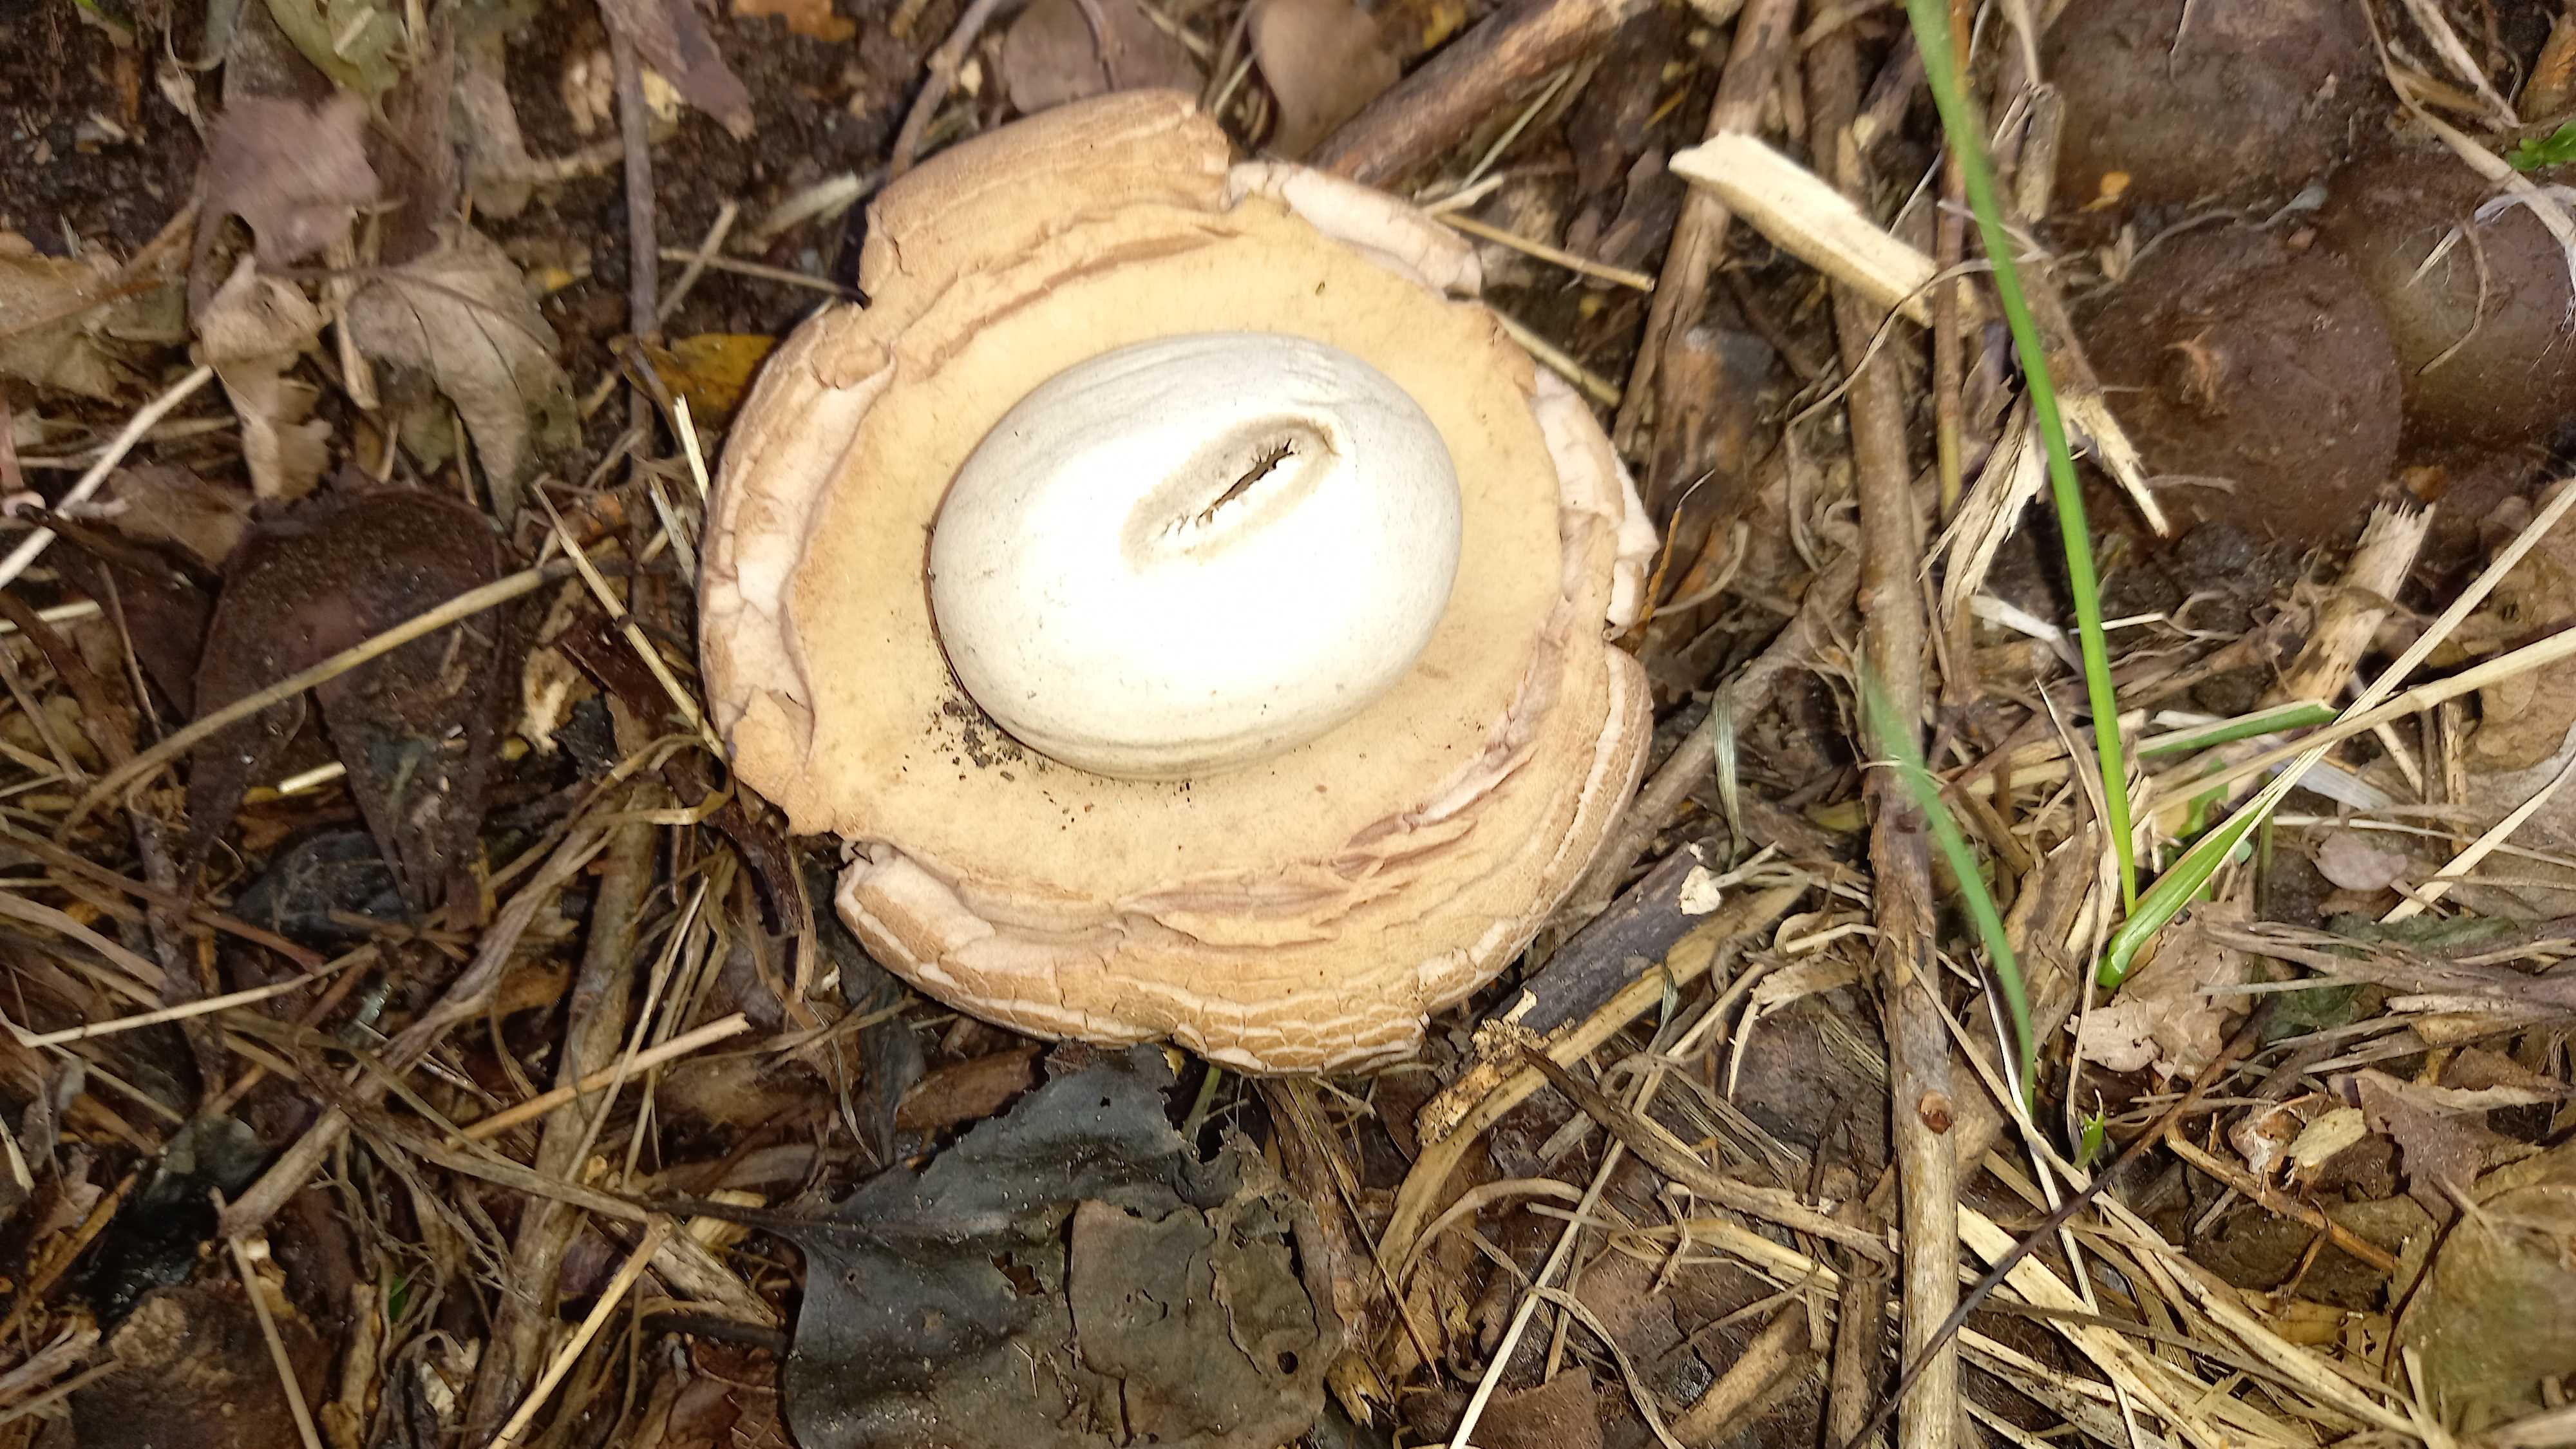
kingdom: Fungi
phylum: Basidiomycota
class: Agaricomycetes
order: Geastrales
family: Geastraceae
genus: Geastrum
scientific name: Geastrum michelianum
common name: kødet stjernebold
